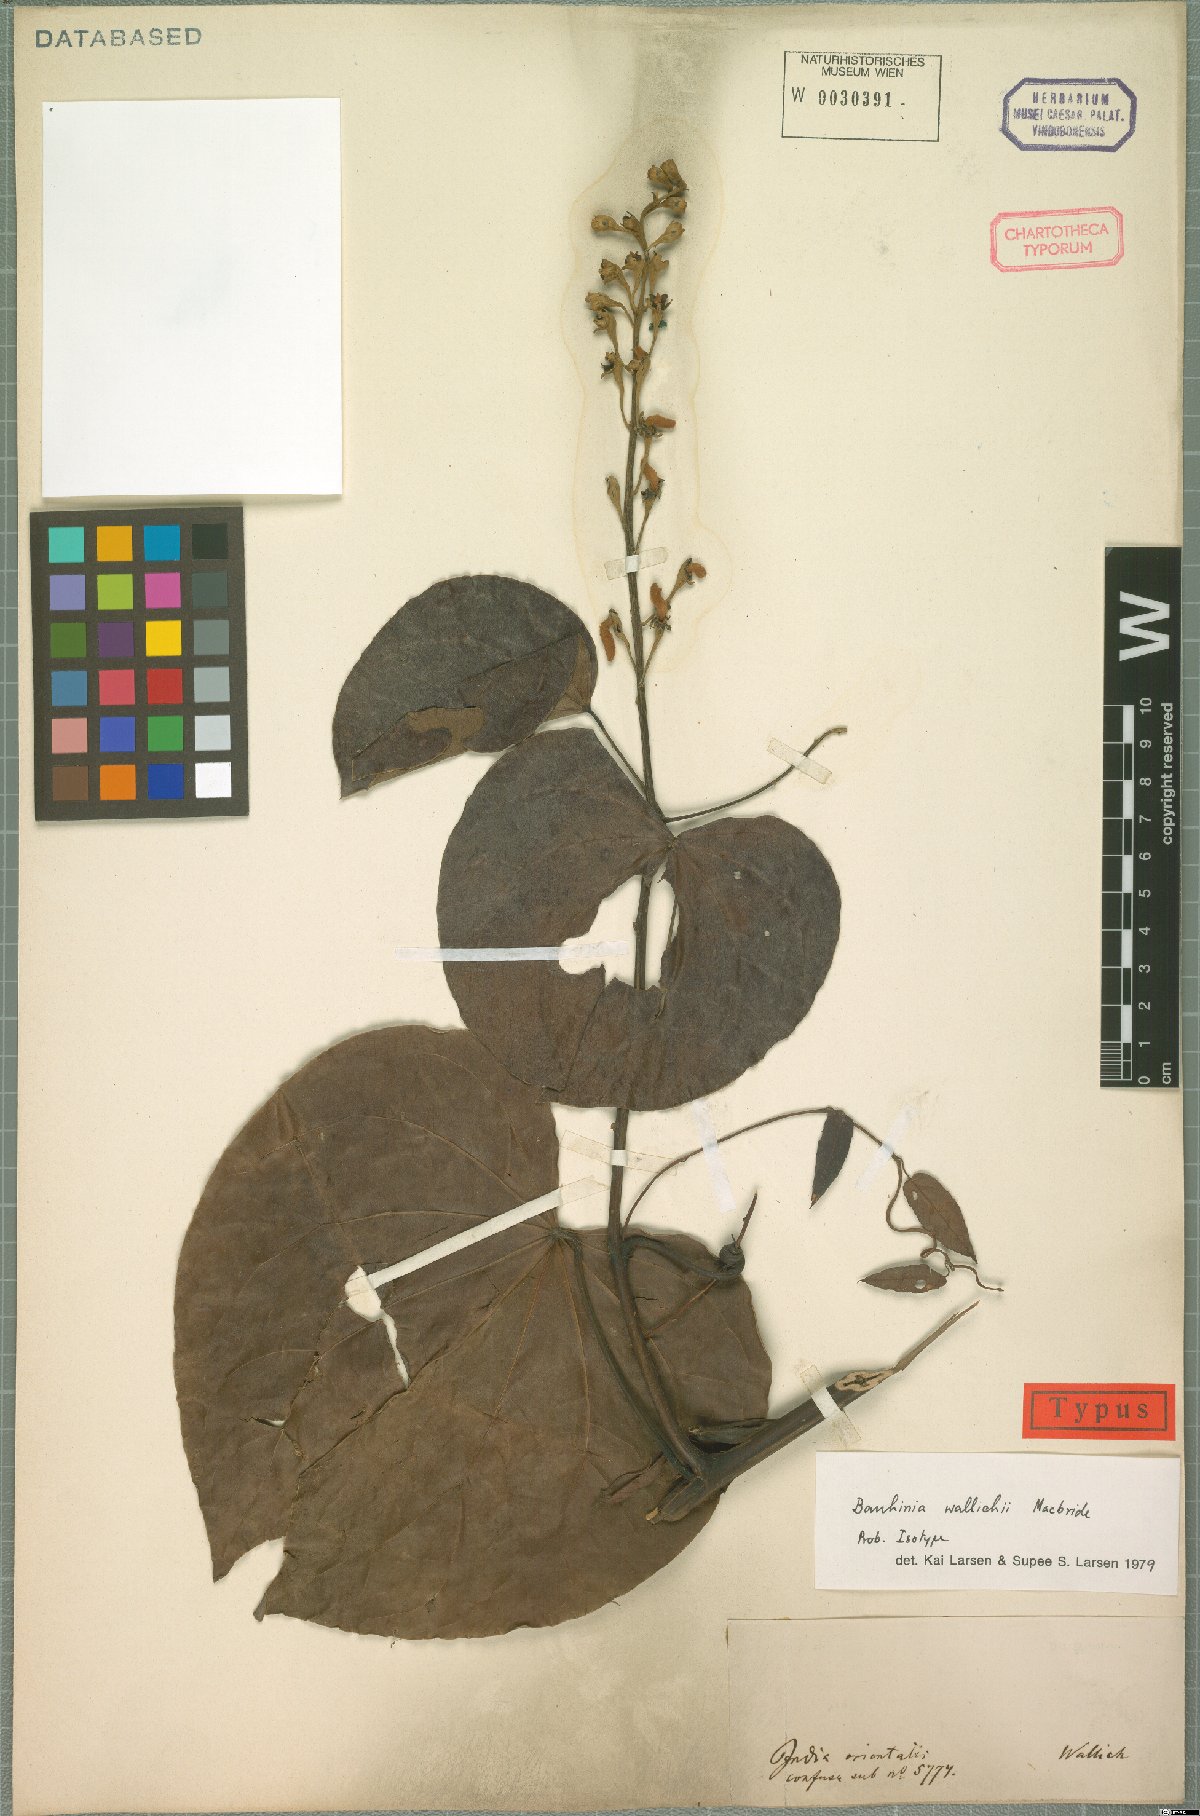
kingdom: Plantae
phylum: Tracheophyta
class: Magnoliopsida
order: Fabales
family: Fabaceae
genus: Phanera
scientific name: Phanera macrostachya
